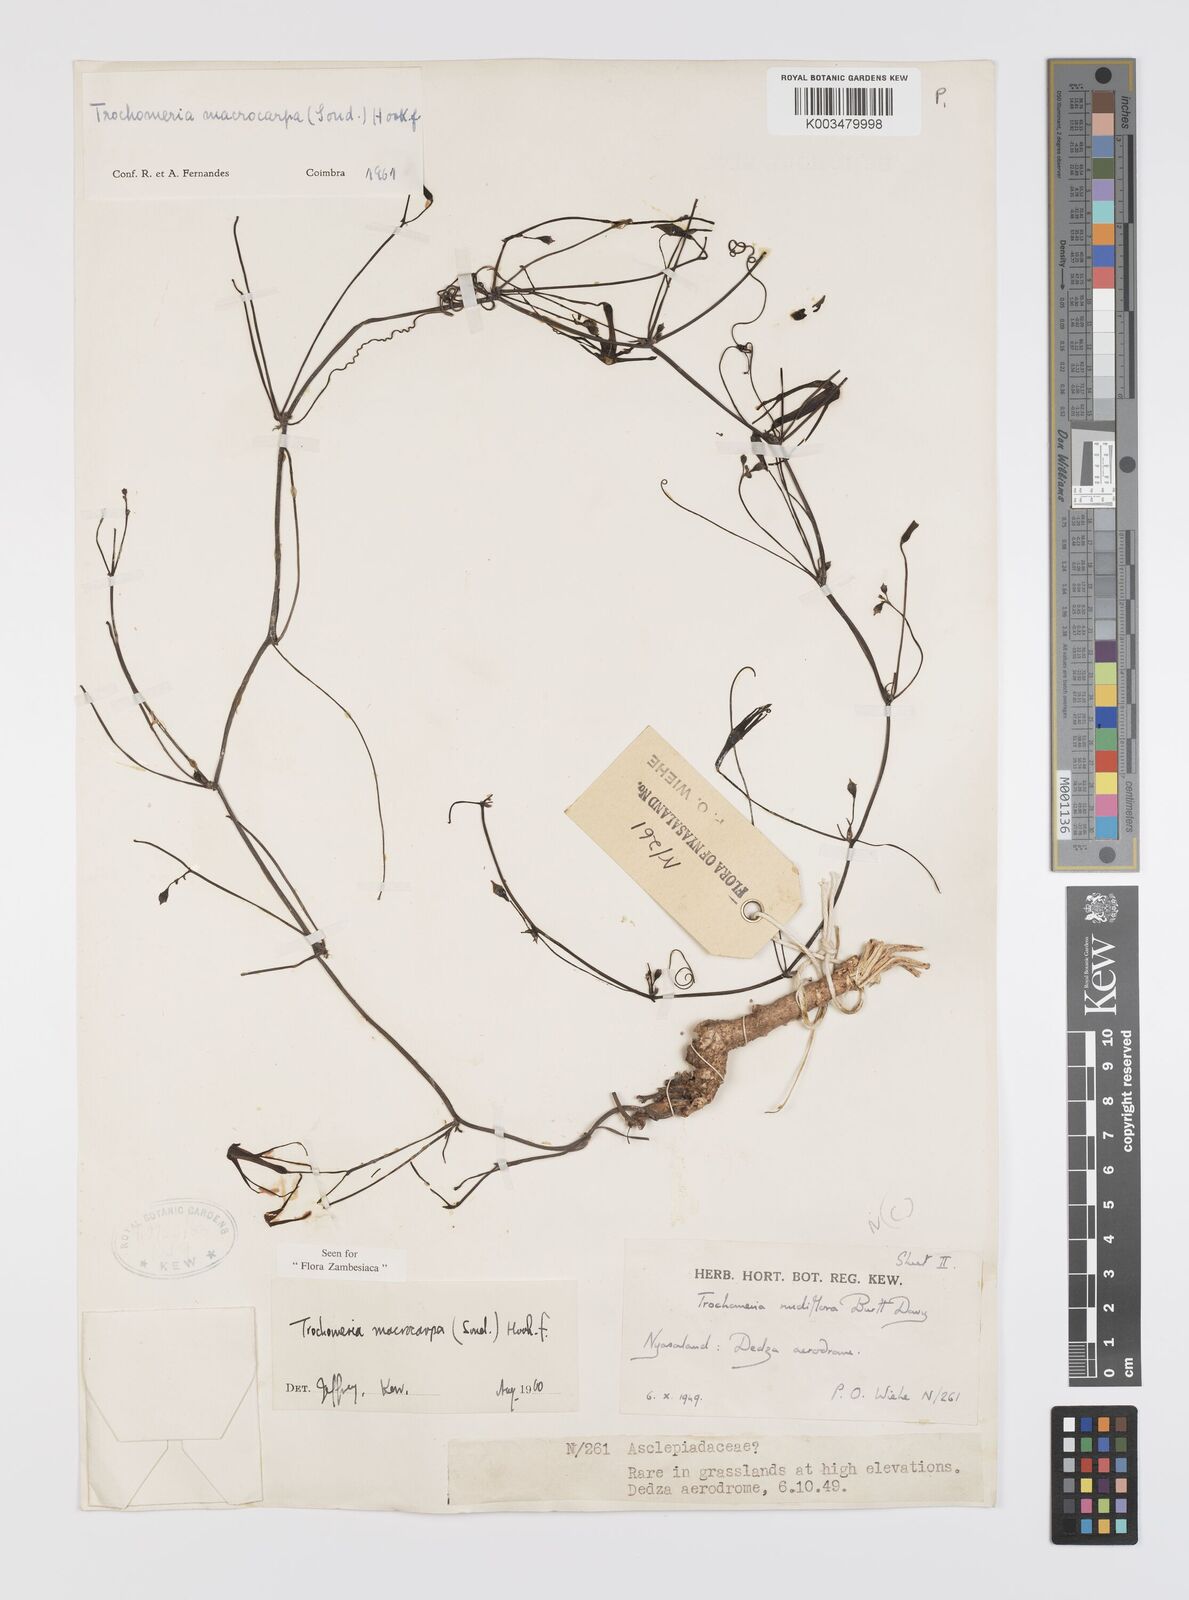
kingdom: Plantae
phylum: Tracheophyta
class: Magnoliopsida
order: Cucurbitales
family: Cucurbitaceae
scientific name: Cucurbitaceae
